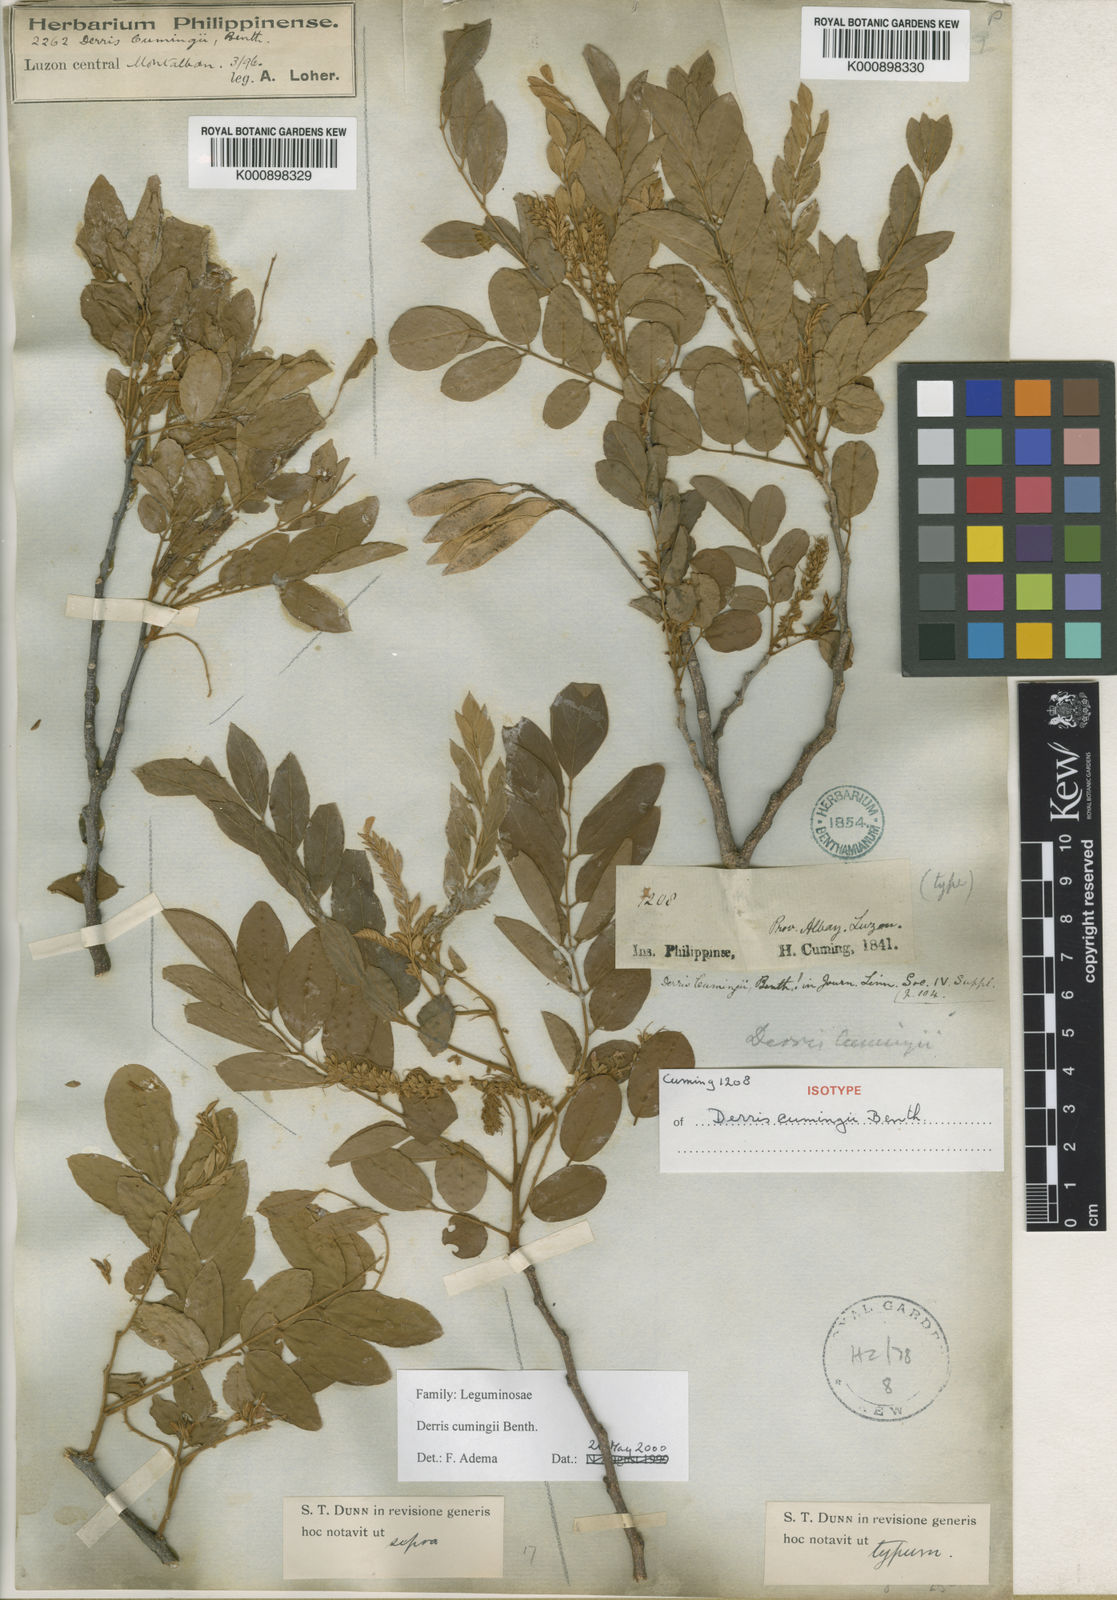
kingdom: Plantae
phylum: Tracheophyta
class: Magnoliopsida
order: Fabales
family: Fabaceae
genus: Brachypterum
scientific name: Brachypterum cumingii
